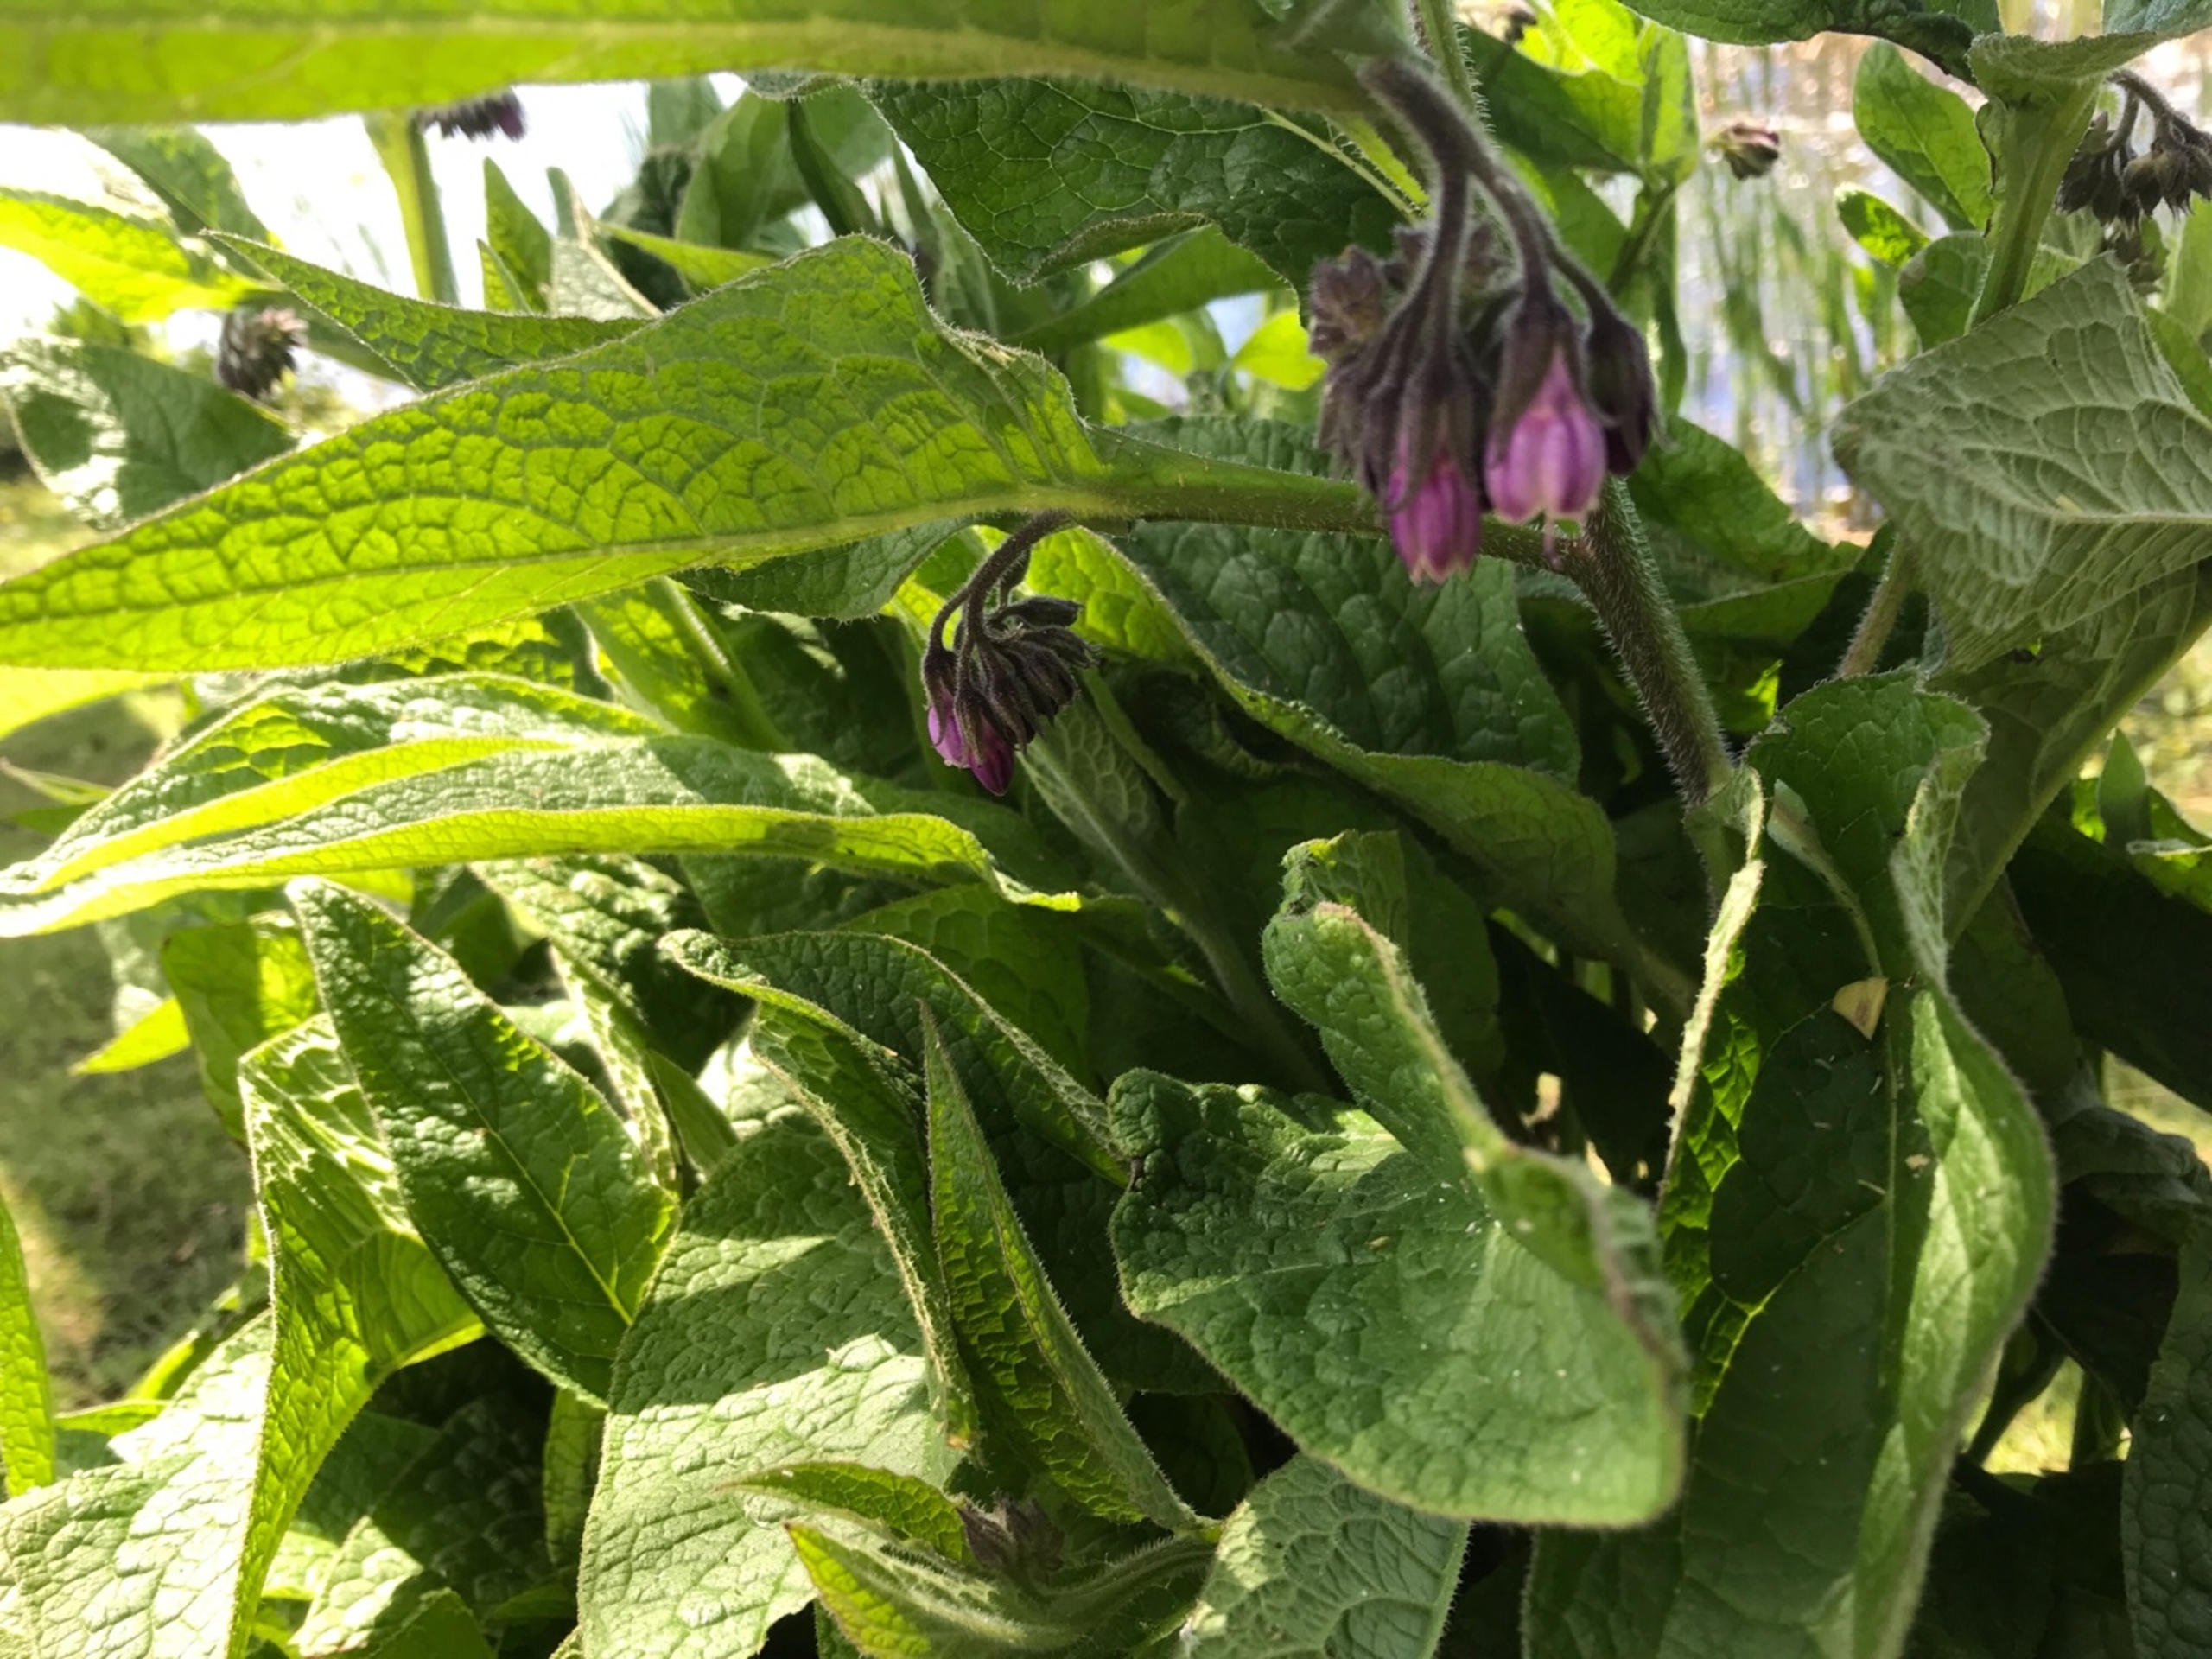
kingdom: Plantae
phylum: Tracheophyta
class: Magnoliopsida
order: Boraginales
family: Boraginaceae
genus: Symphytum
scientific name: Symphytum uplandicum
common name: Foder-kulsukker
